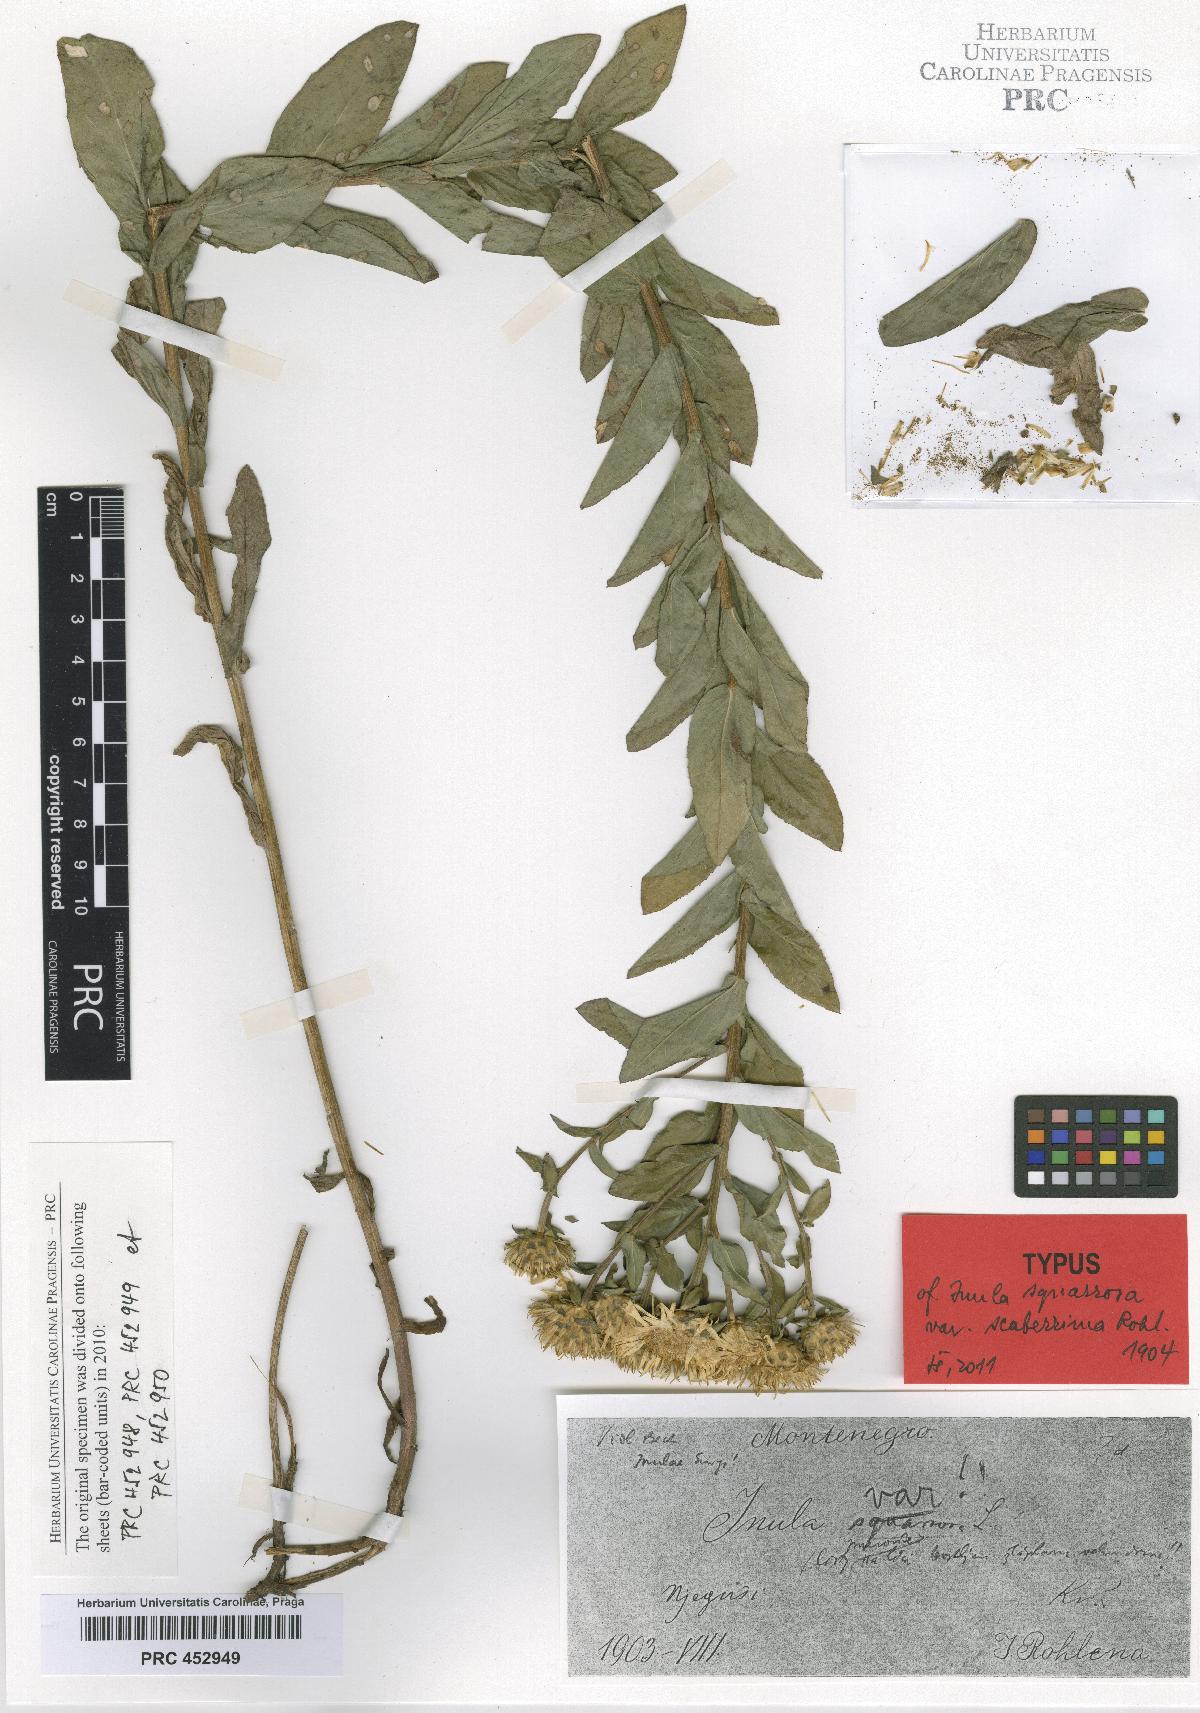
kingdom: Plantae
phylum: Tracheophyta
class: Magnoliopsida
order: Asterales
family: Asteraceae
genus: Pentanema
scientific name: Pentanema spiraeifolium
